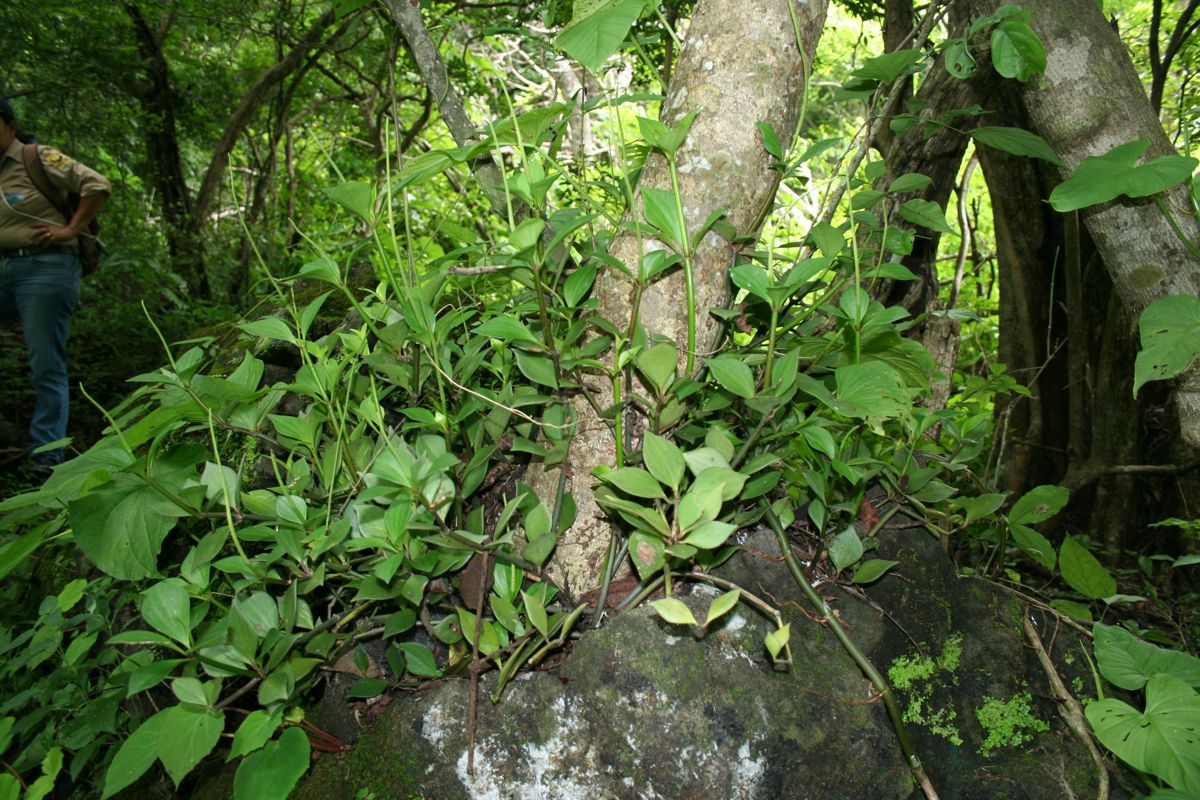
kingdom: Plantae
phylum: Tracheophyta
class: Magnoliopsida
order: Piperales
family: Piperaceae
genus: Peperomia
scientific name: Peperomia pseudopereskiifolia
